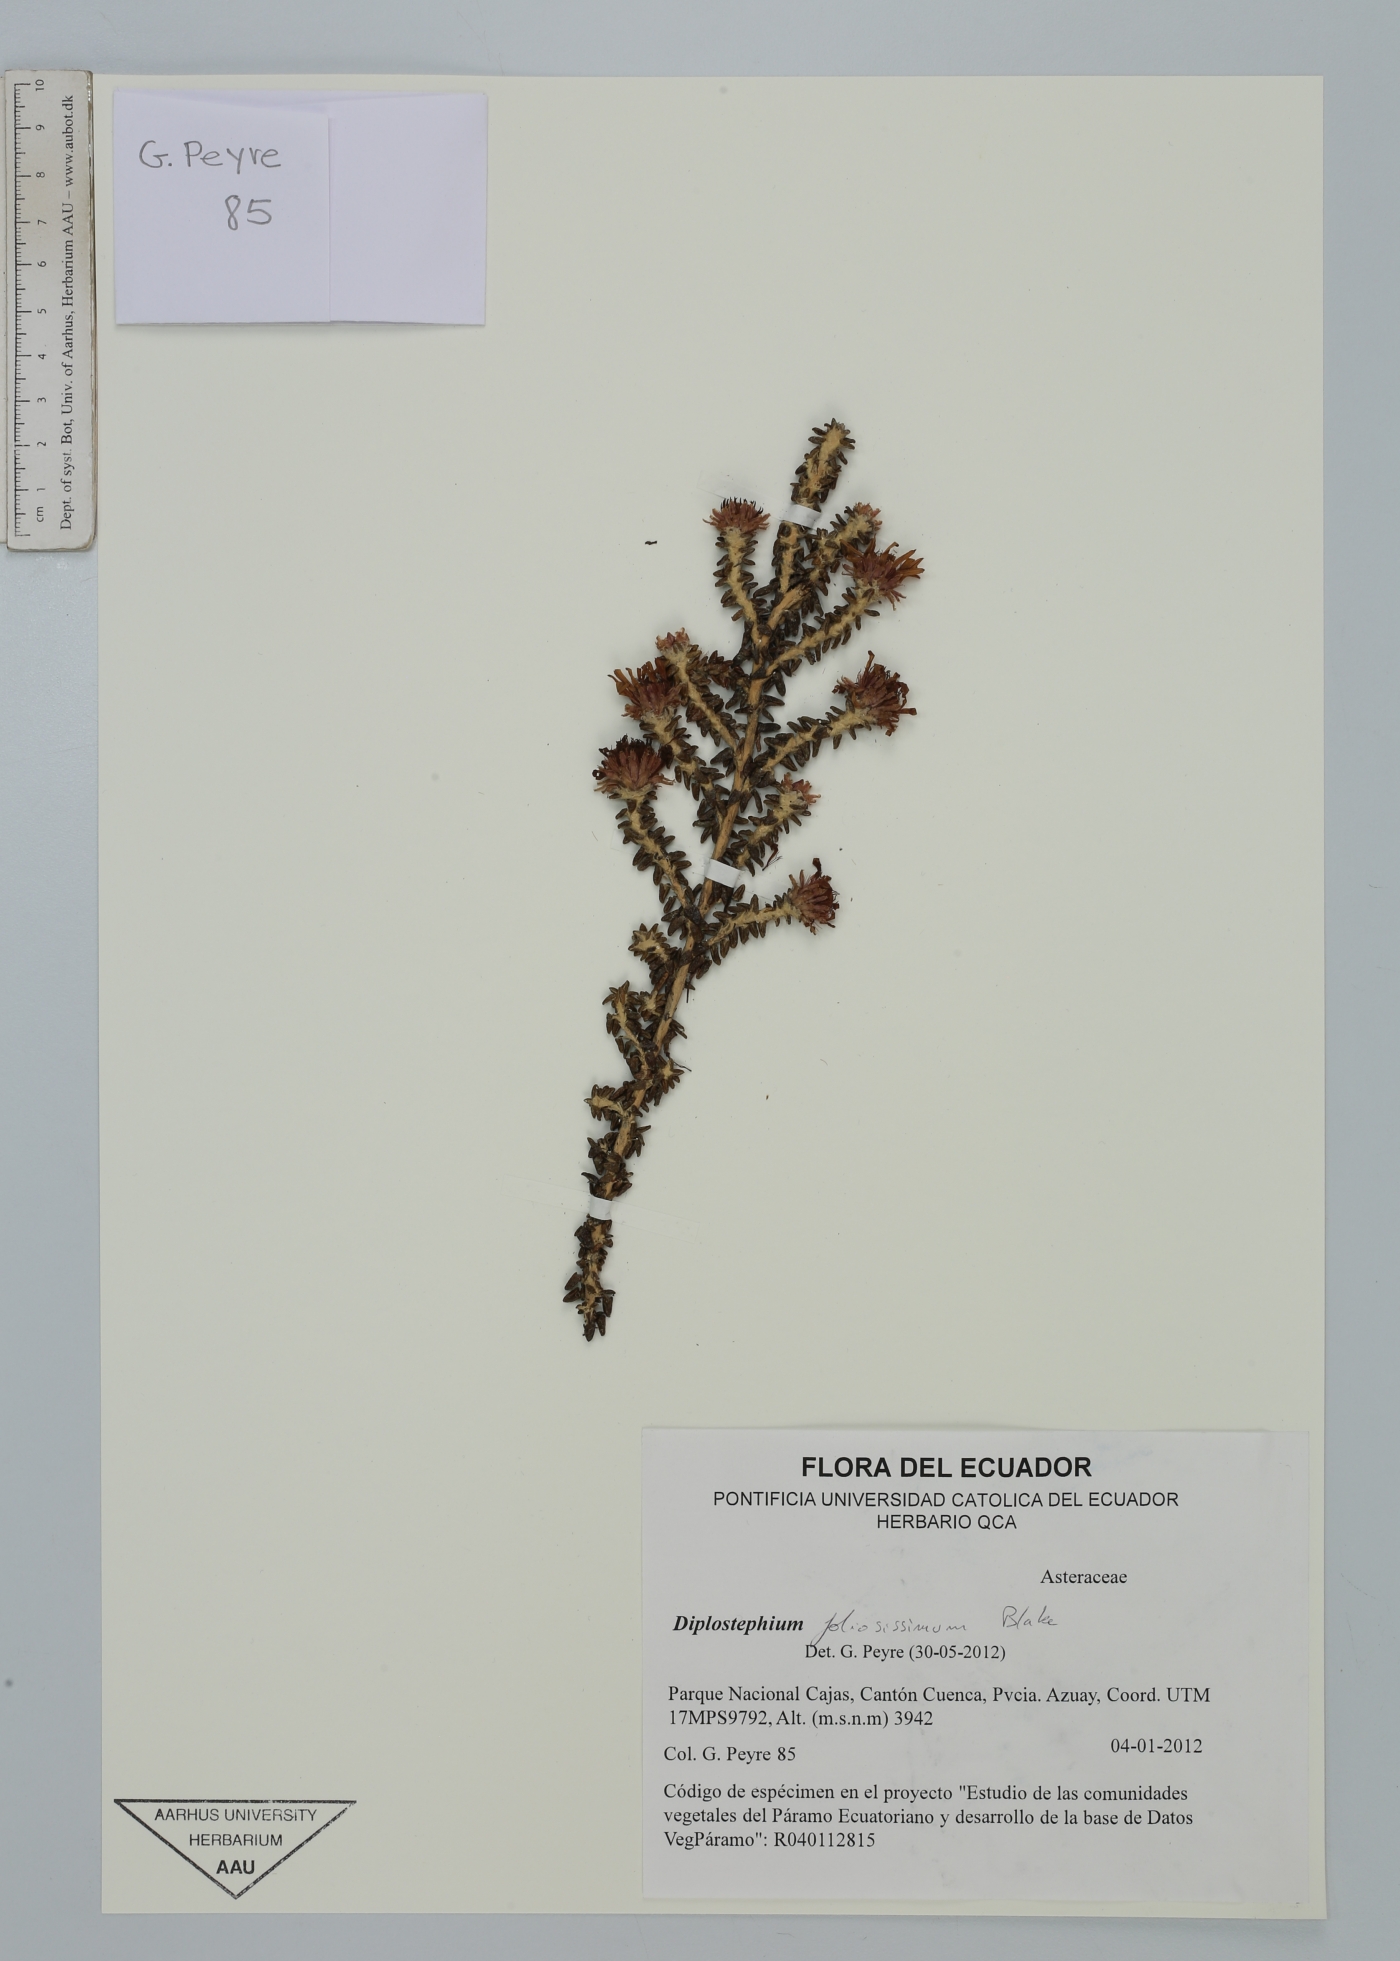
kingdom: Plantae
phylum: Tracheophyta
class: Magnoliopsida
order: Asterales
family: Asteraceae
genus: Diplostephium
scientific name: Diplostephium foliosissimum
